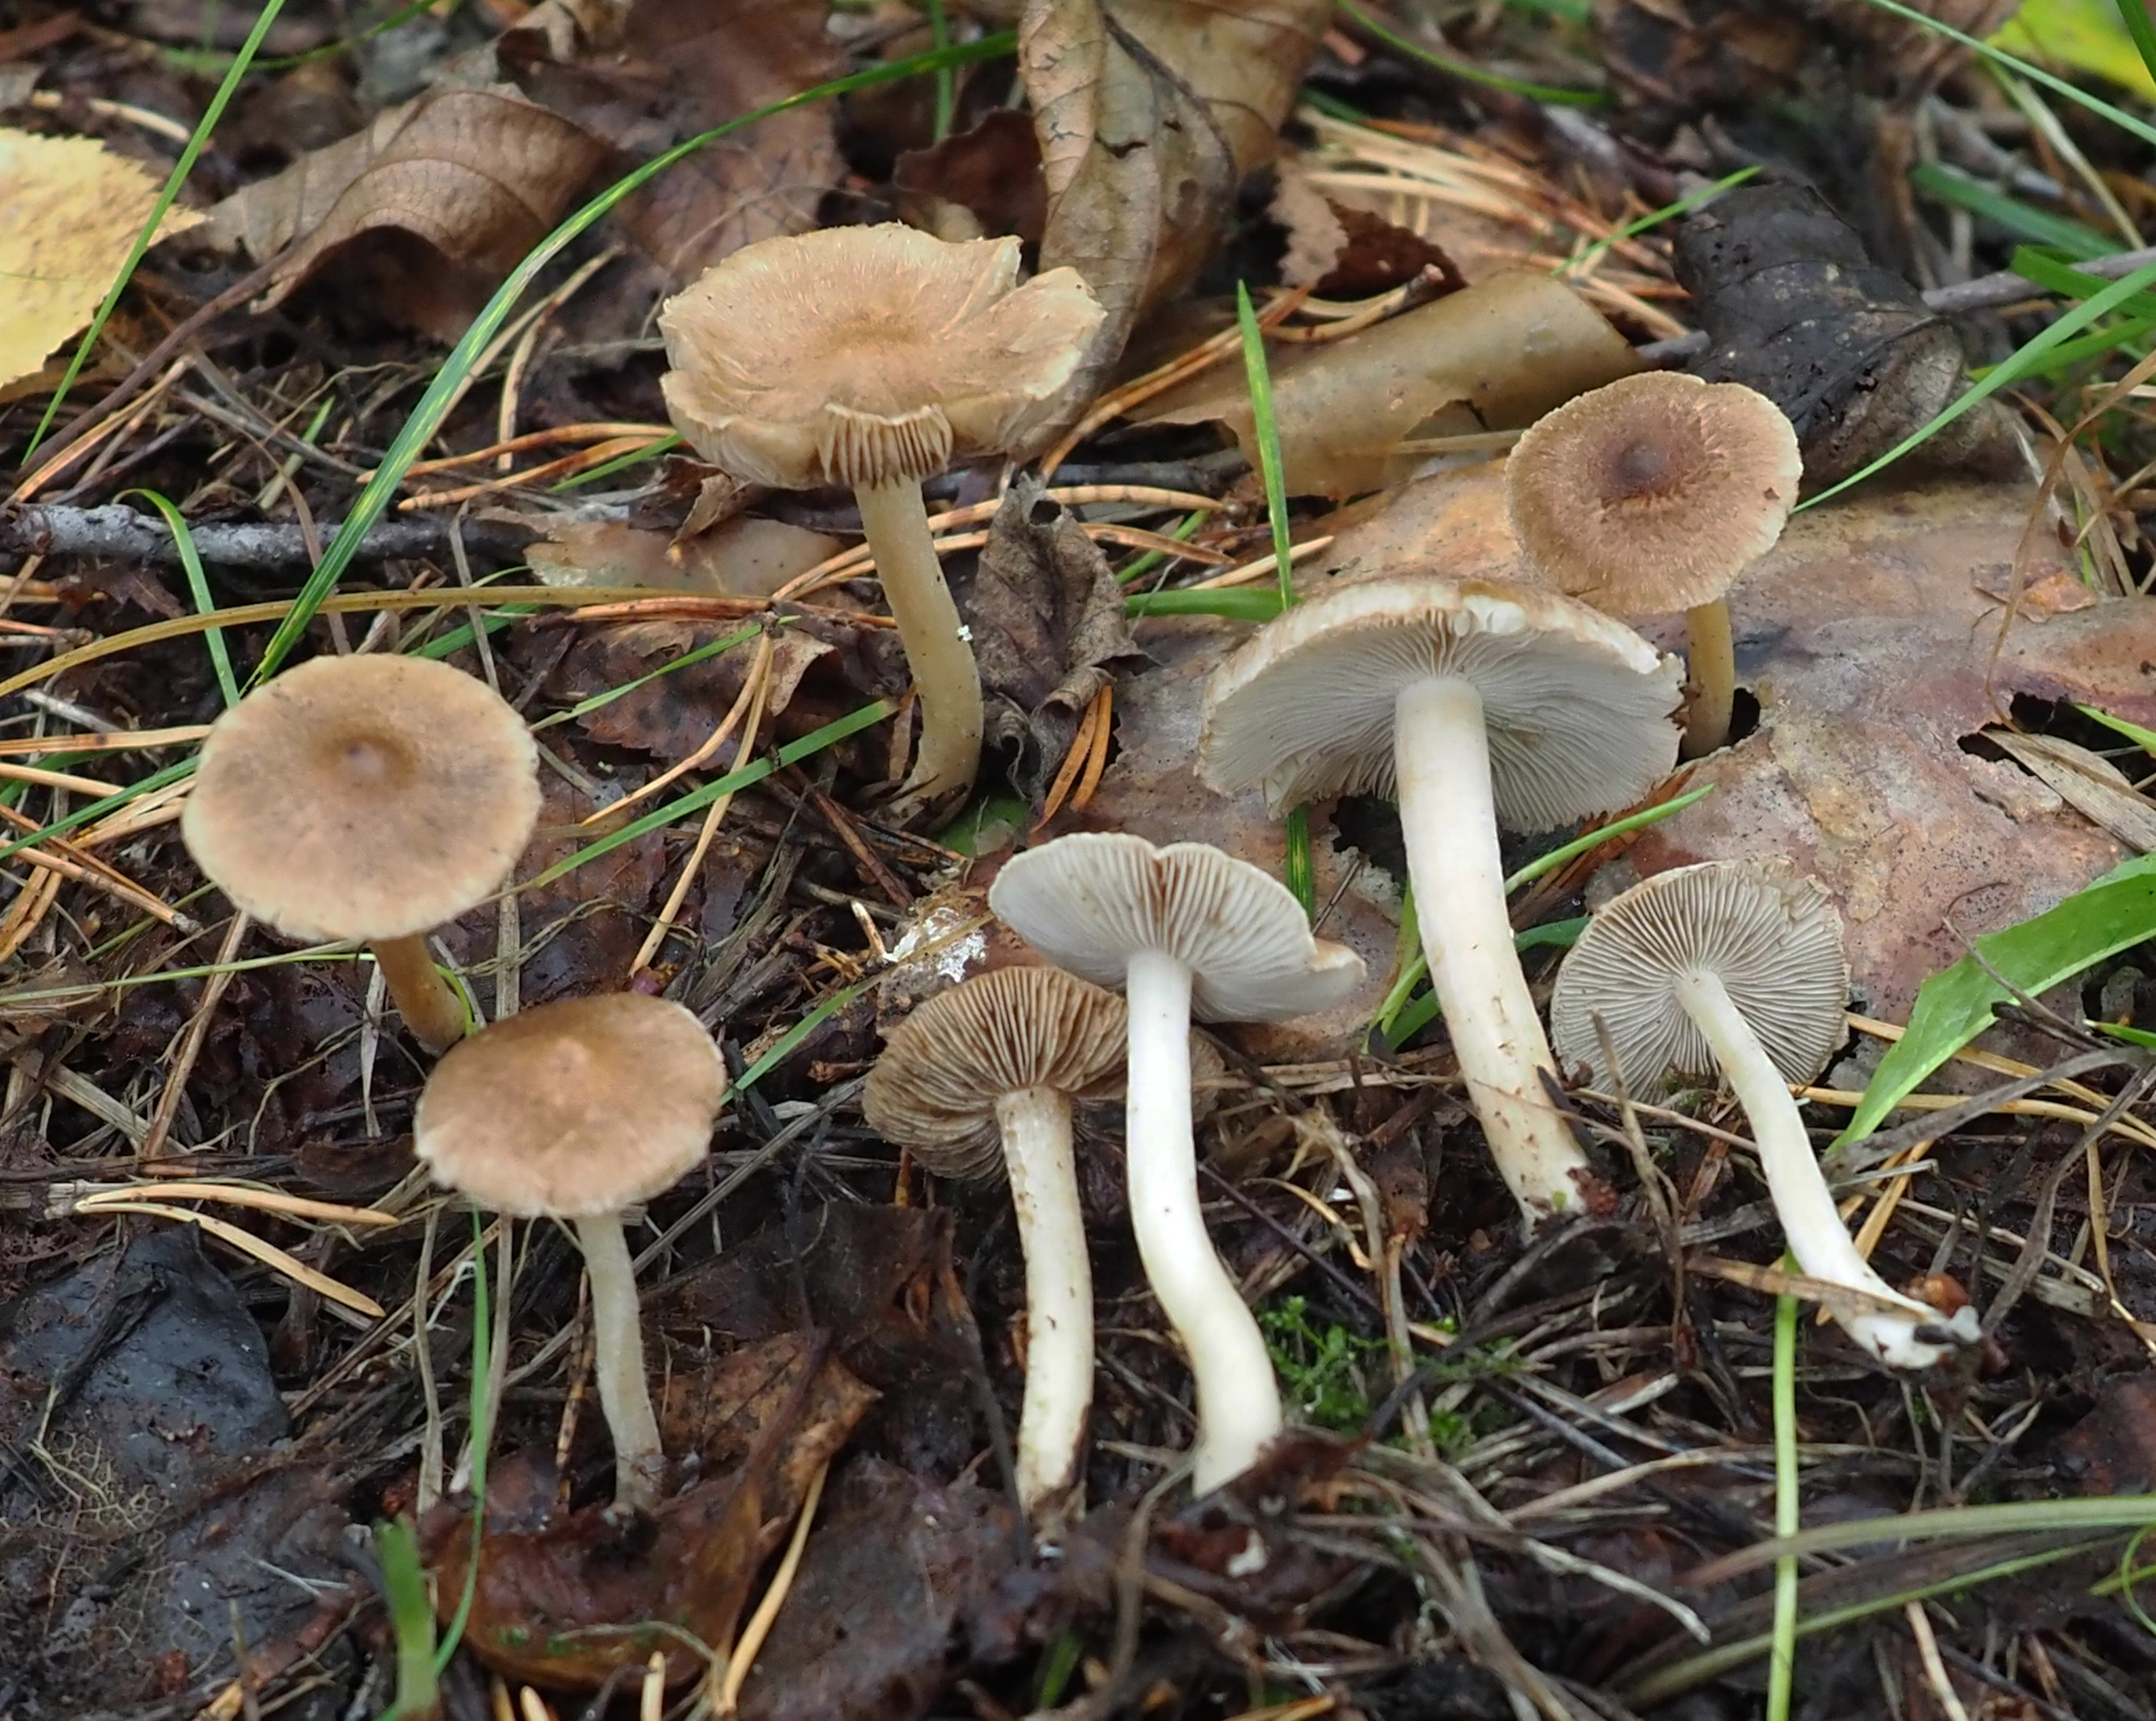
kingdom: Fungi
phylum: Basidiomycota
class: Agaricomycetes
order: Agaricales
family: Inocybaceae
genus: Inocybe
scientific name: Inocybe
